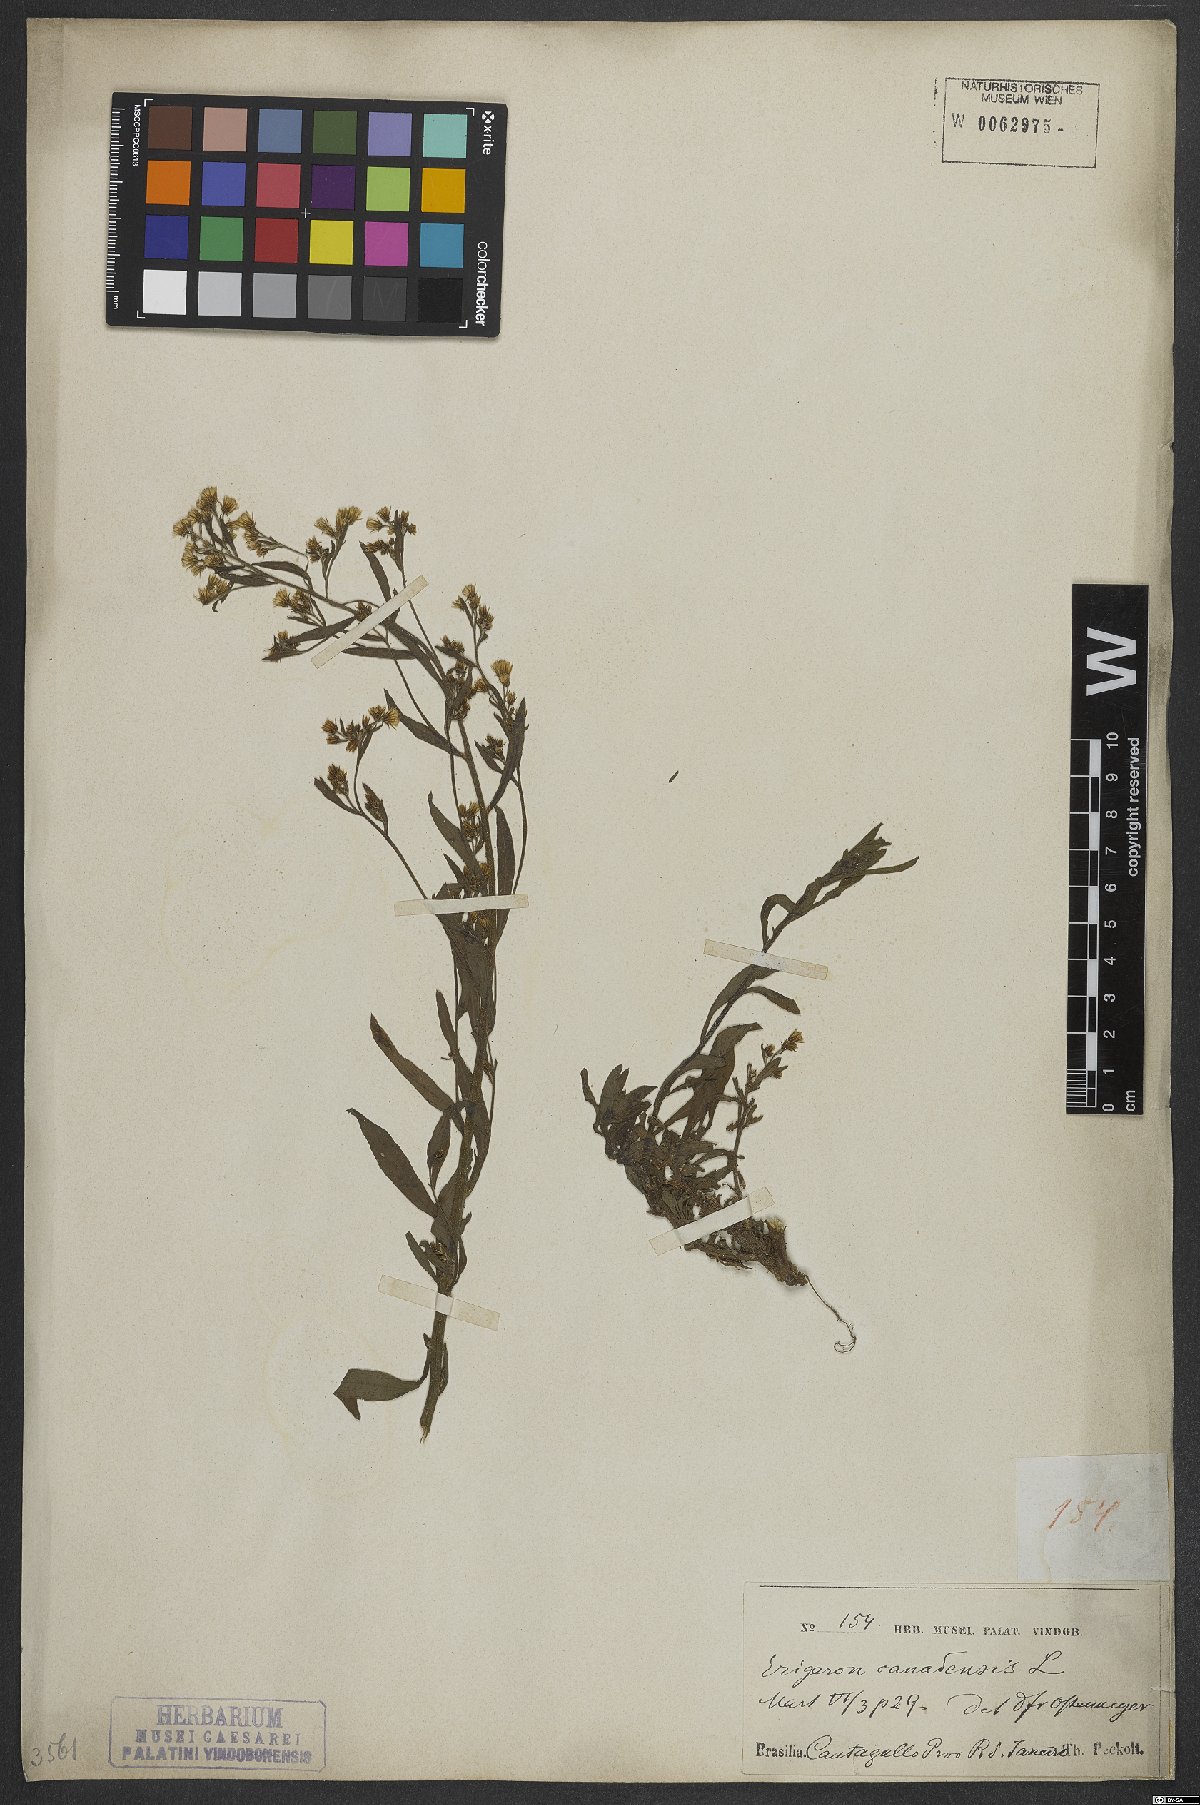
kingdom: Plantae
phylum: Tracheophyta
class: Magnoliopsida
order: Asterales
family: Asteraceae
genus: Erigeron
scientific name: Erigeron canadensis
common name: Canadian fleabane
